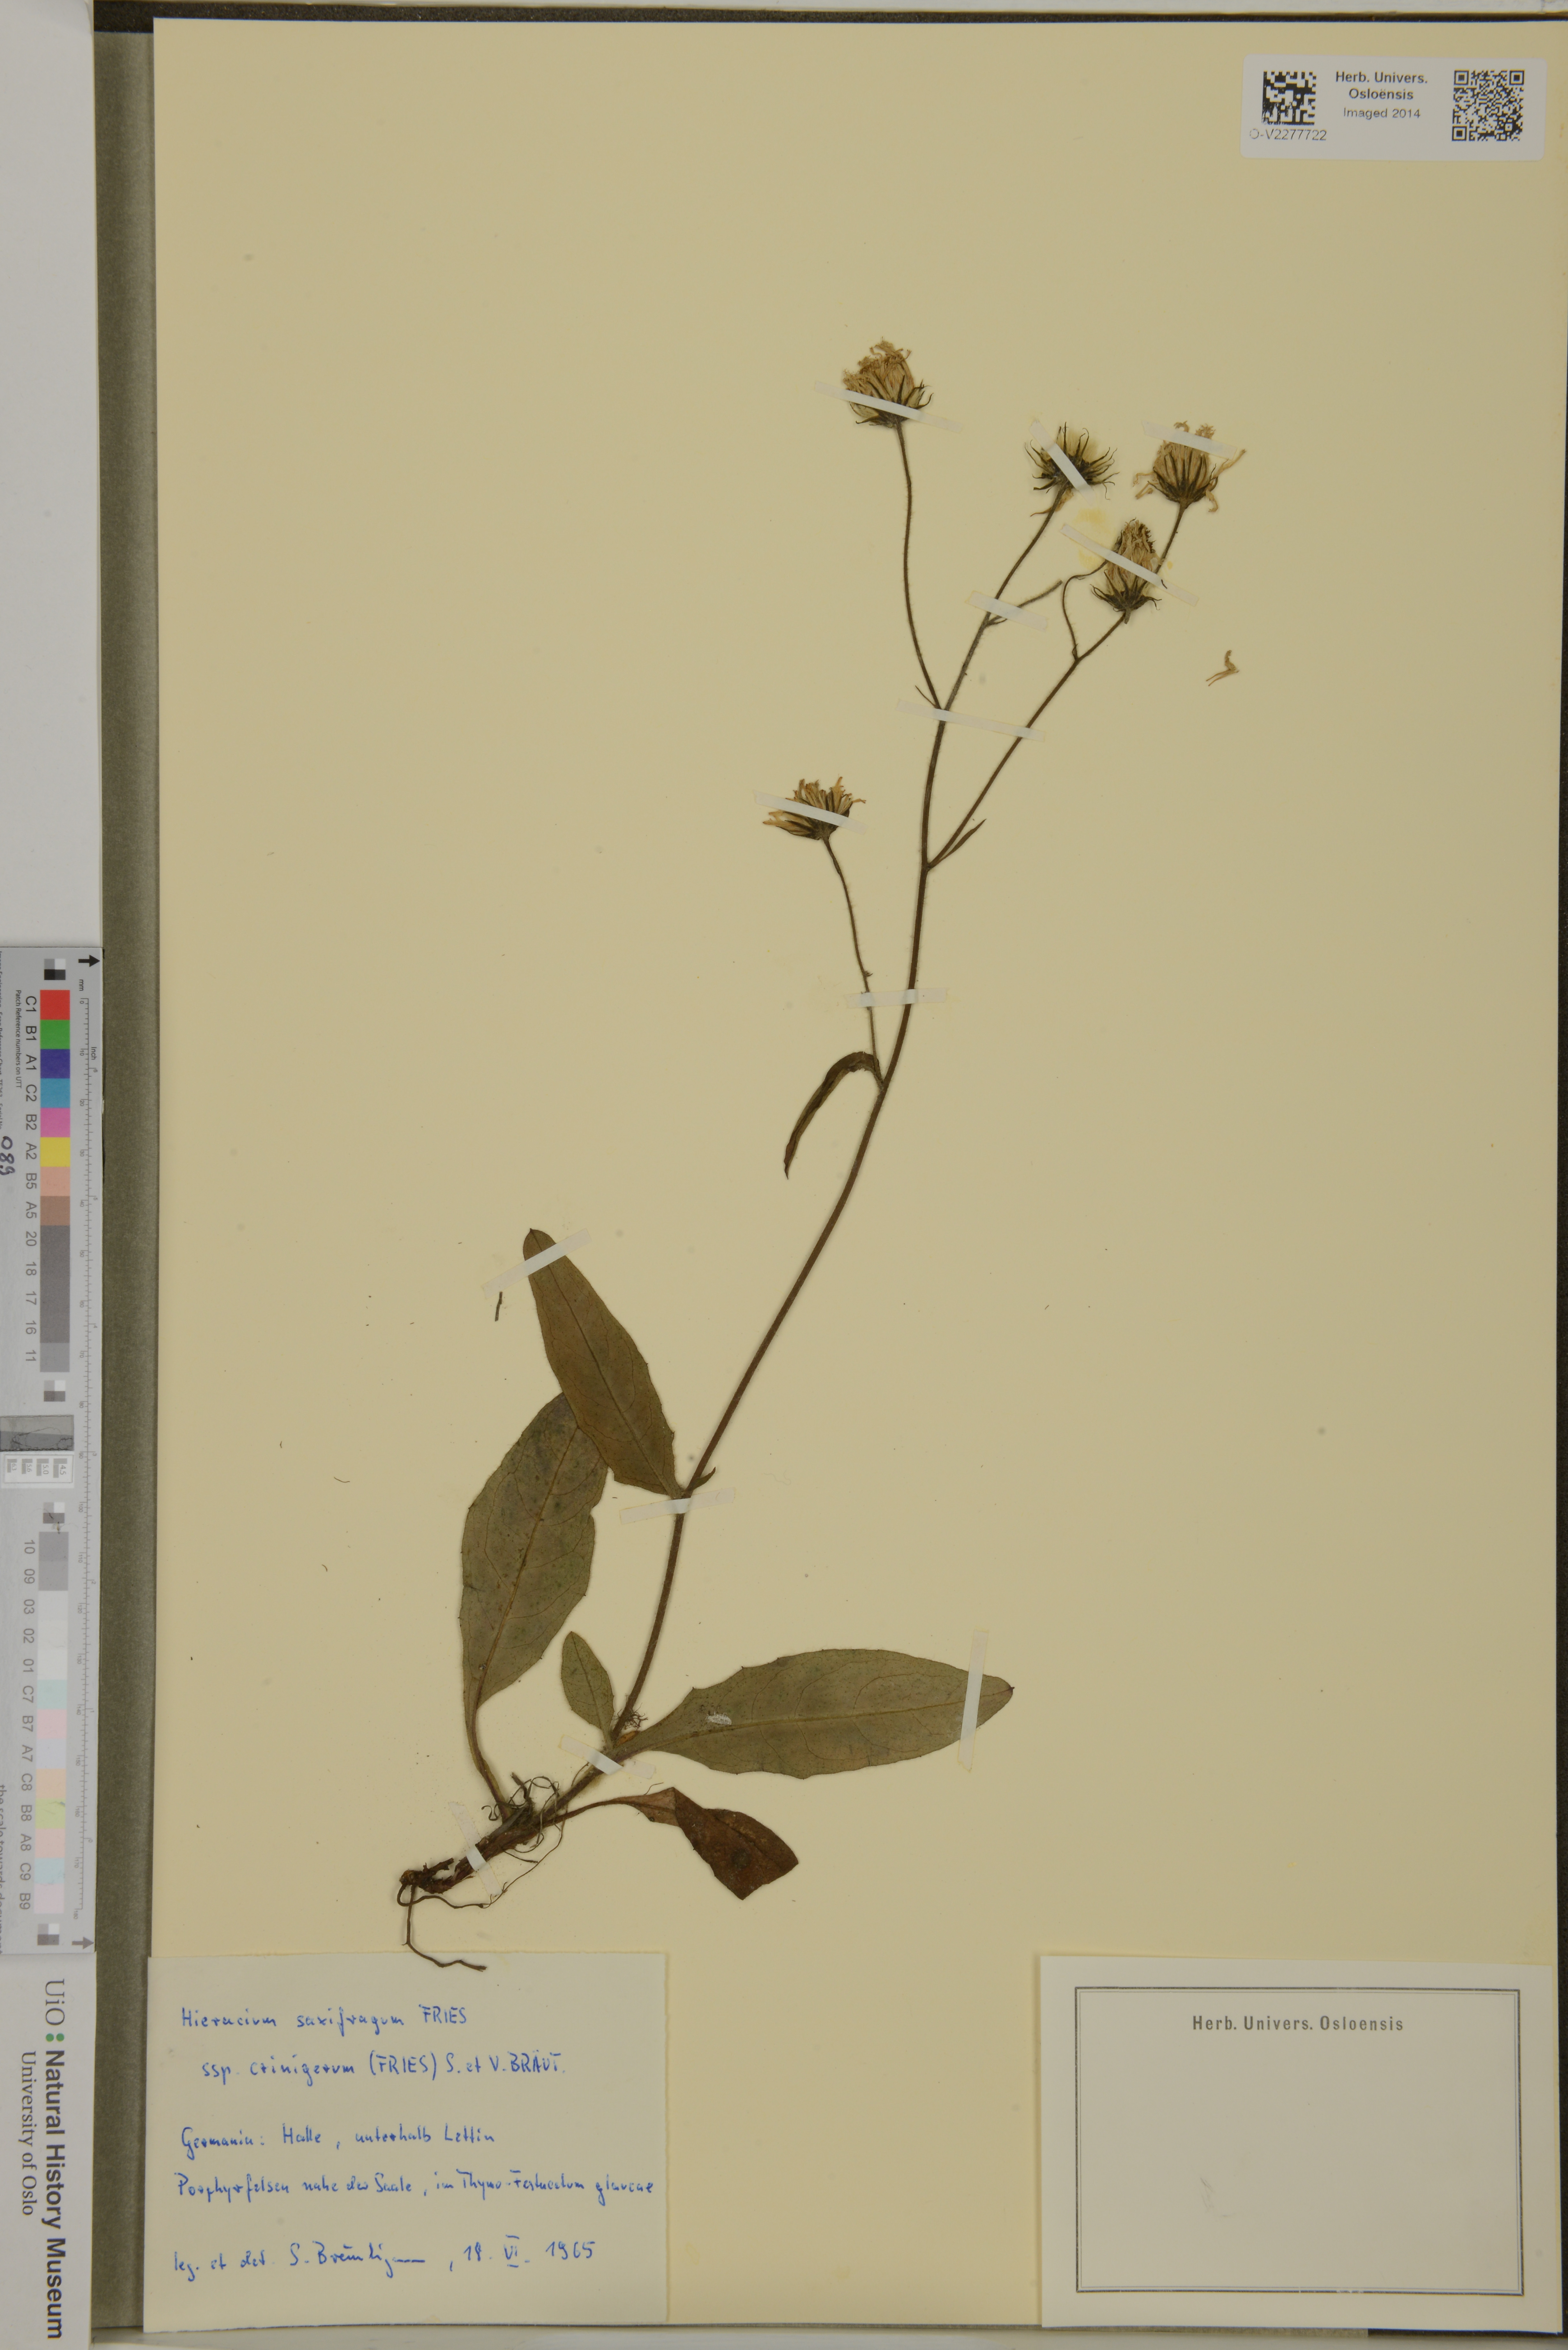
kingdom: Plantae
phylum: Tracheophyta
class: Magnoliopsida
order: Asterales
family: Asteraceae
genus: Hieracium
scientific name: Hieracium saxifragum
